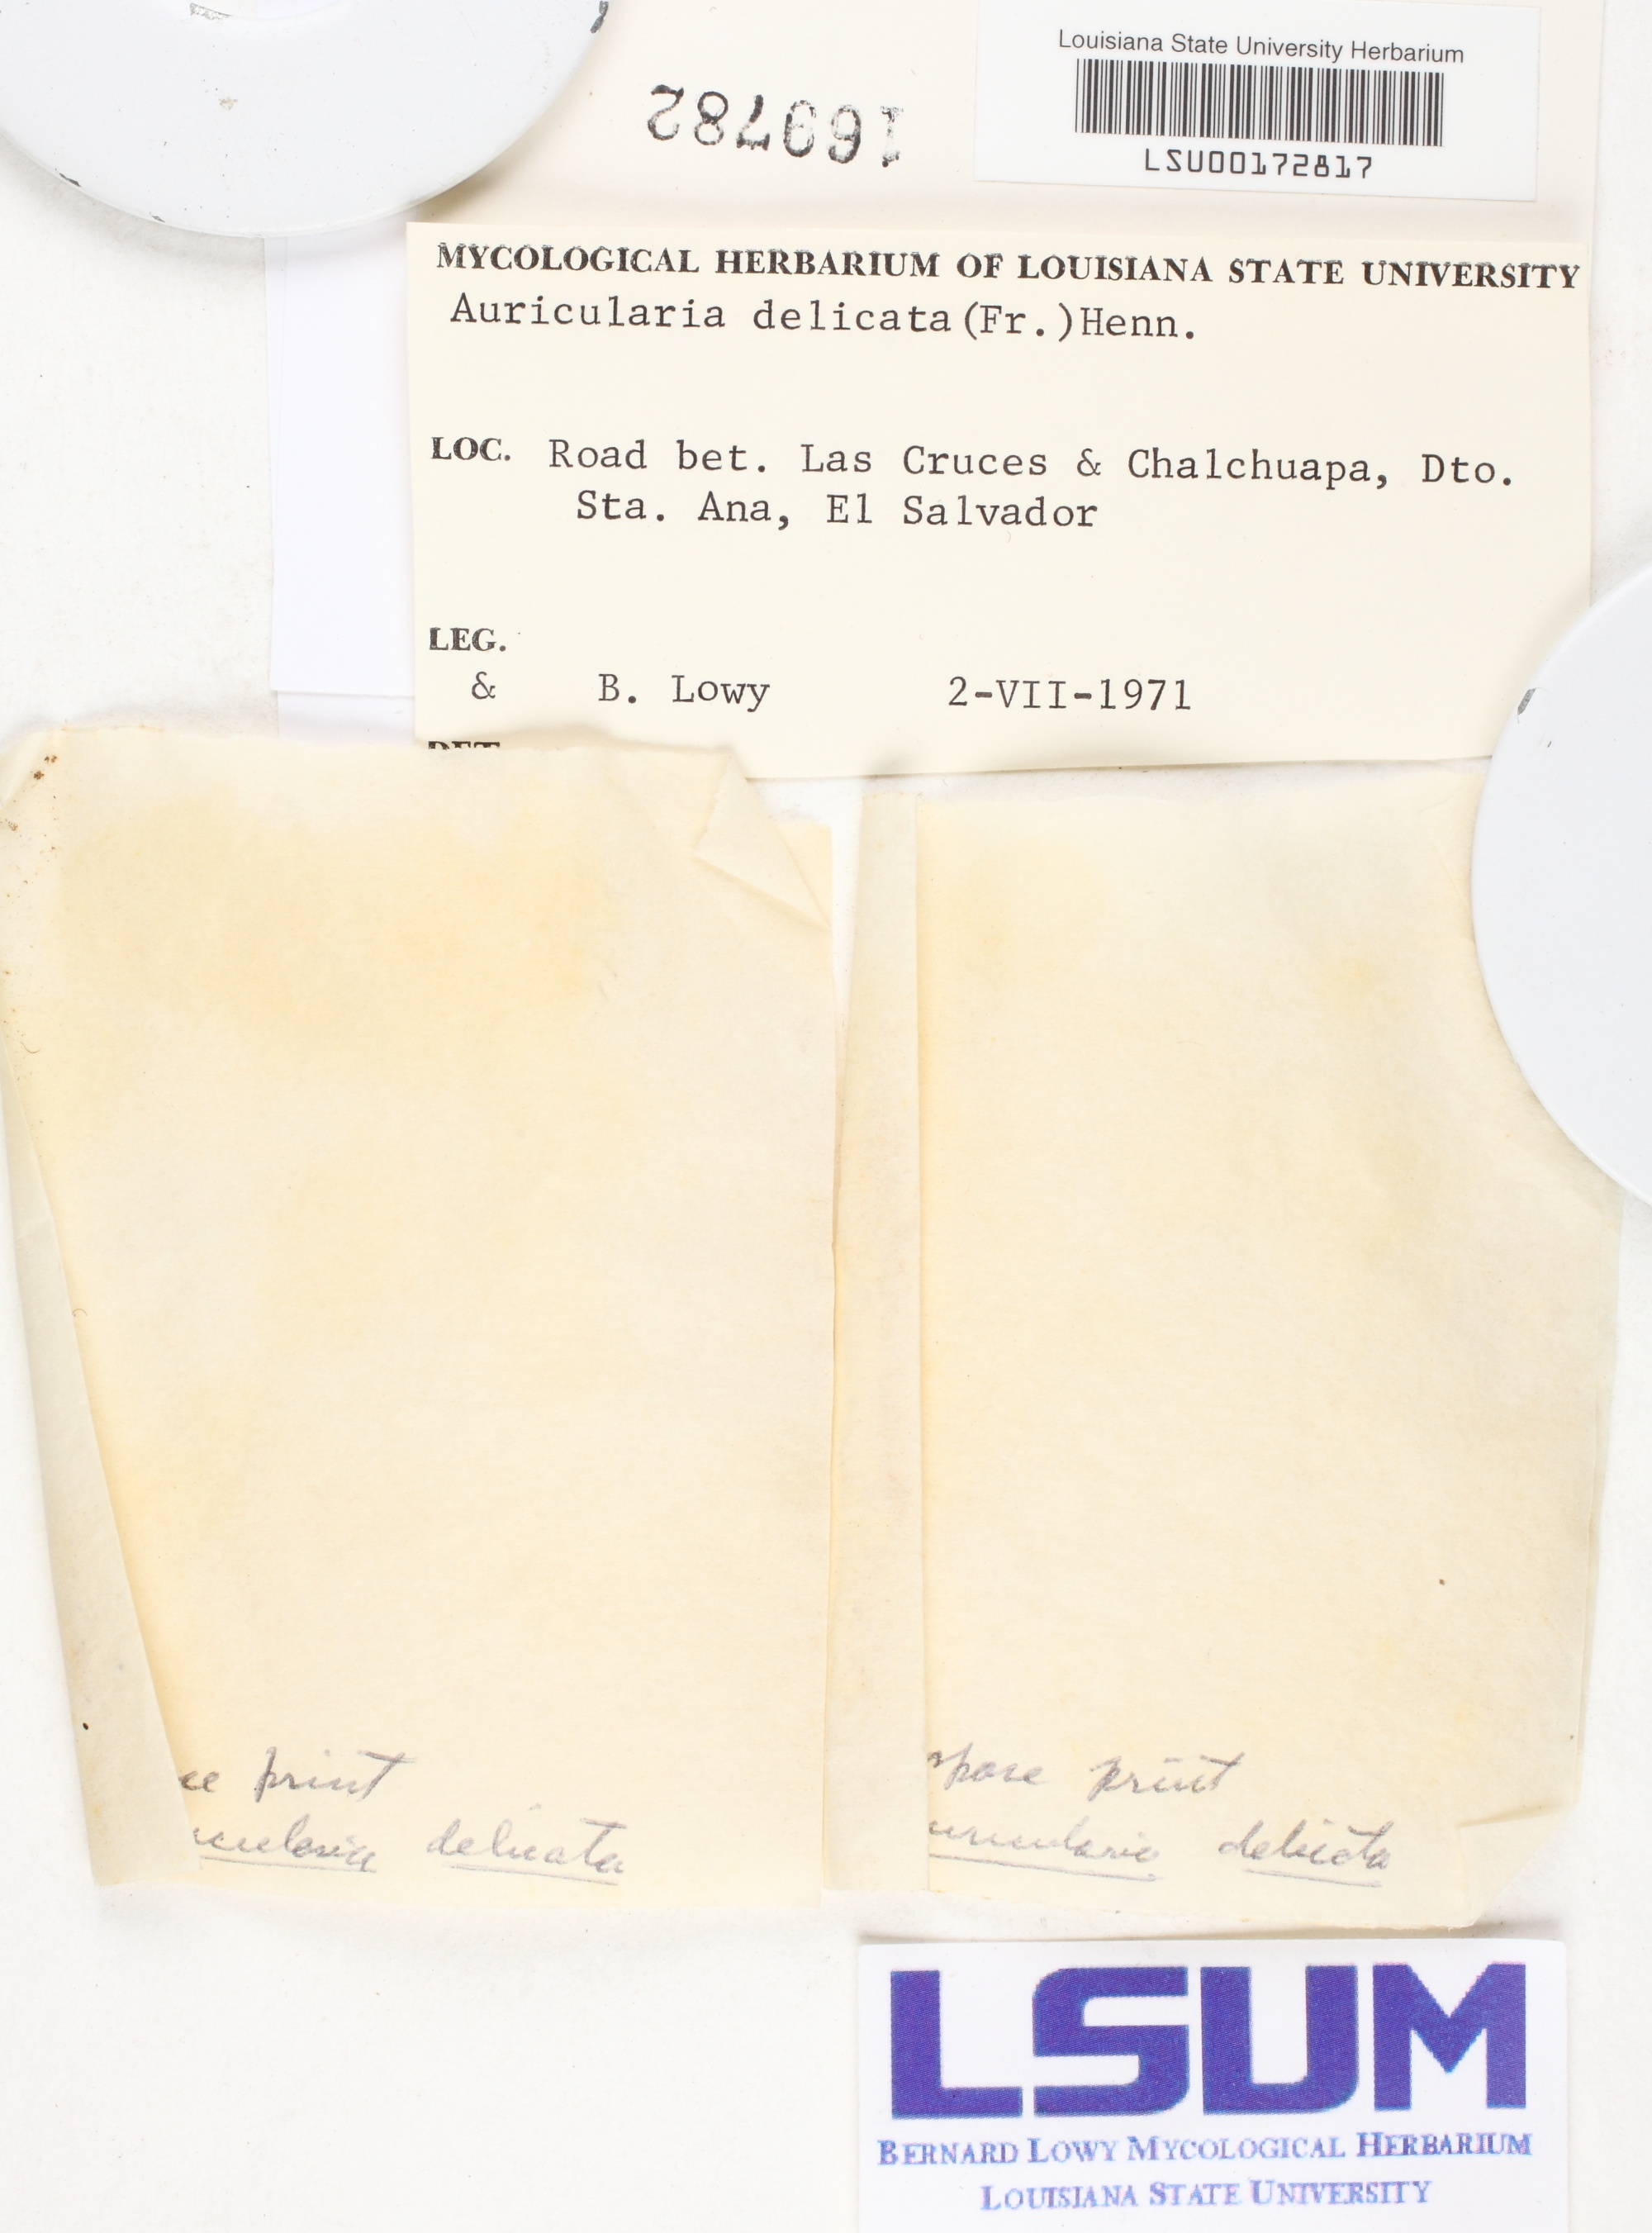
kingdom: Fungi
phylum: Basidiomycota
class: Agaricomycetes
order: Auriculariales
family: Auriculariaceae
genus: Auricularia
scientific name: Auricularia delicata
